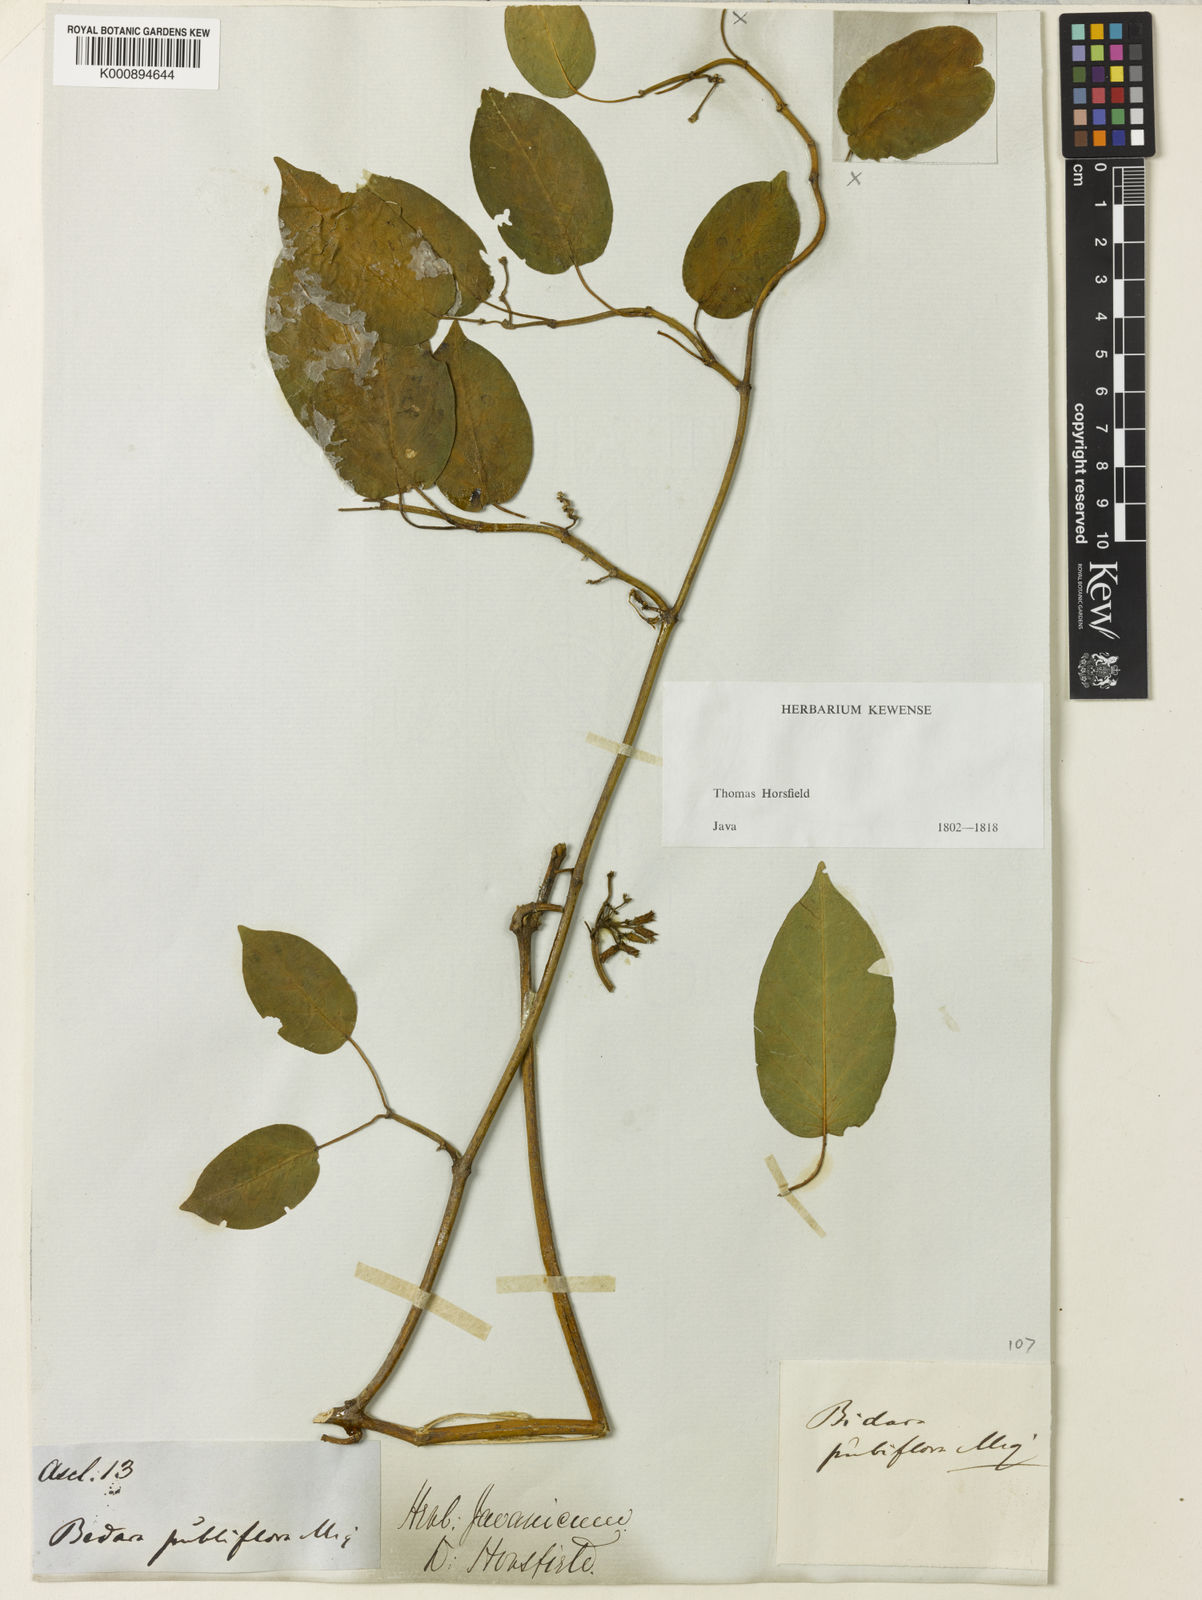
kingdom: Plantae
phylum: Tracheophyta
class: Magnoliopsida
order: Gentianales
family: Apocynaceae
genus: Gymnema
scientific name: Gymnema
